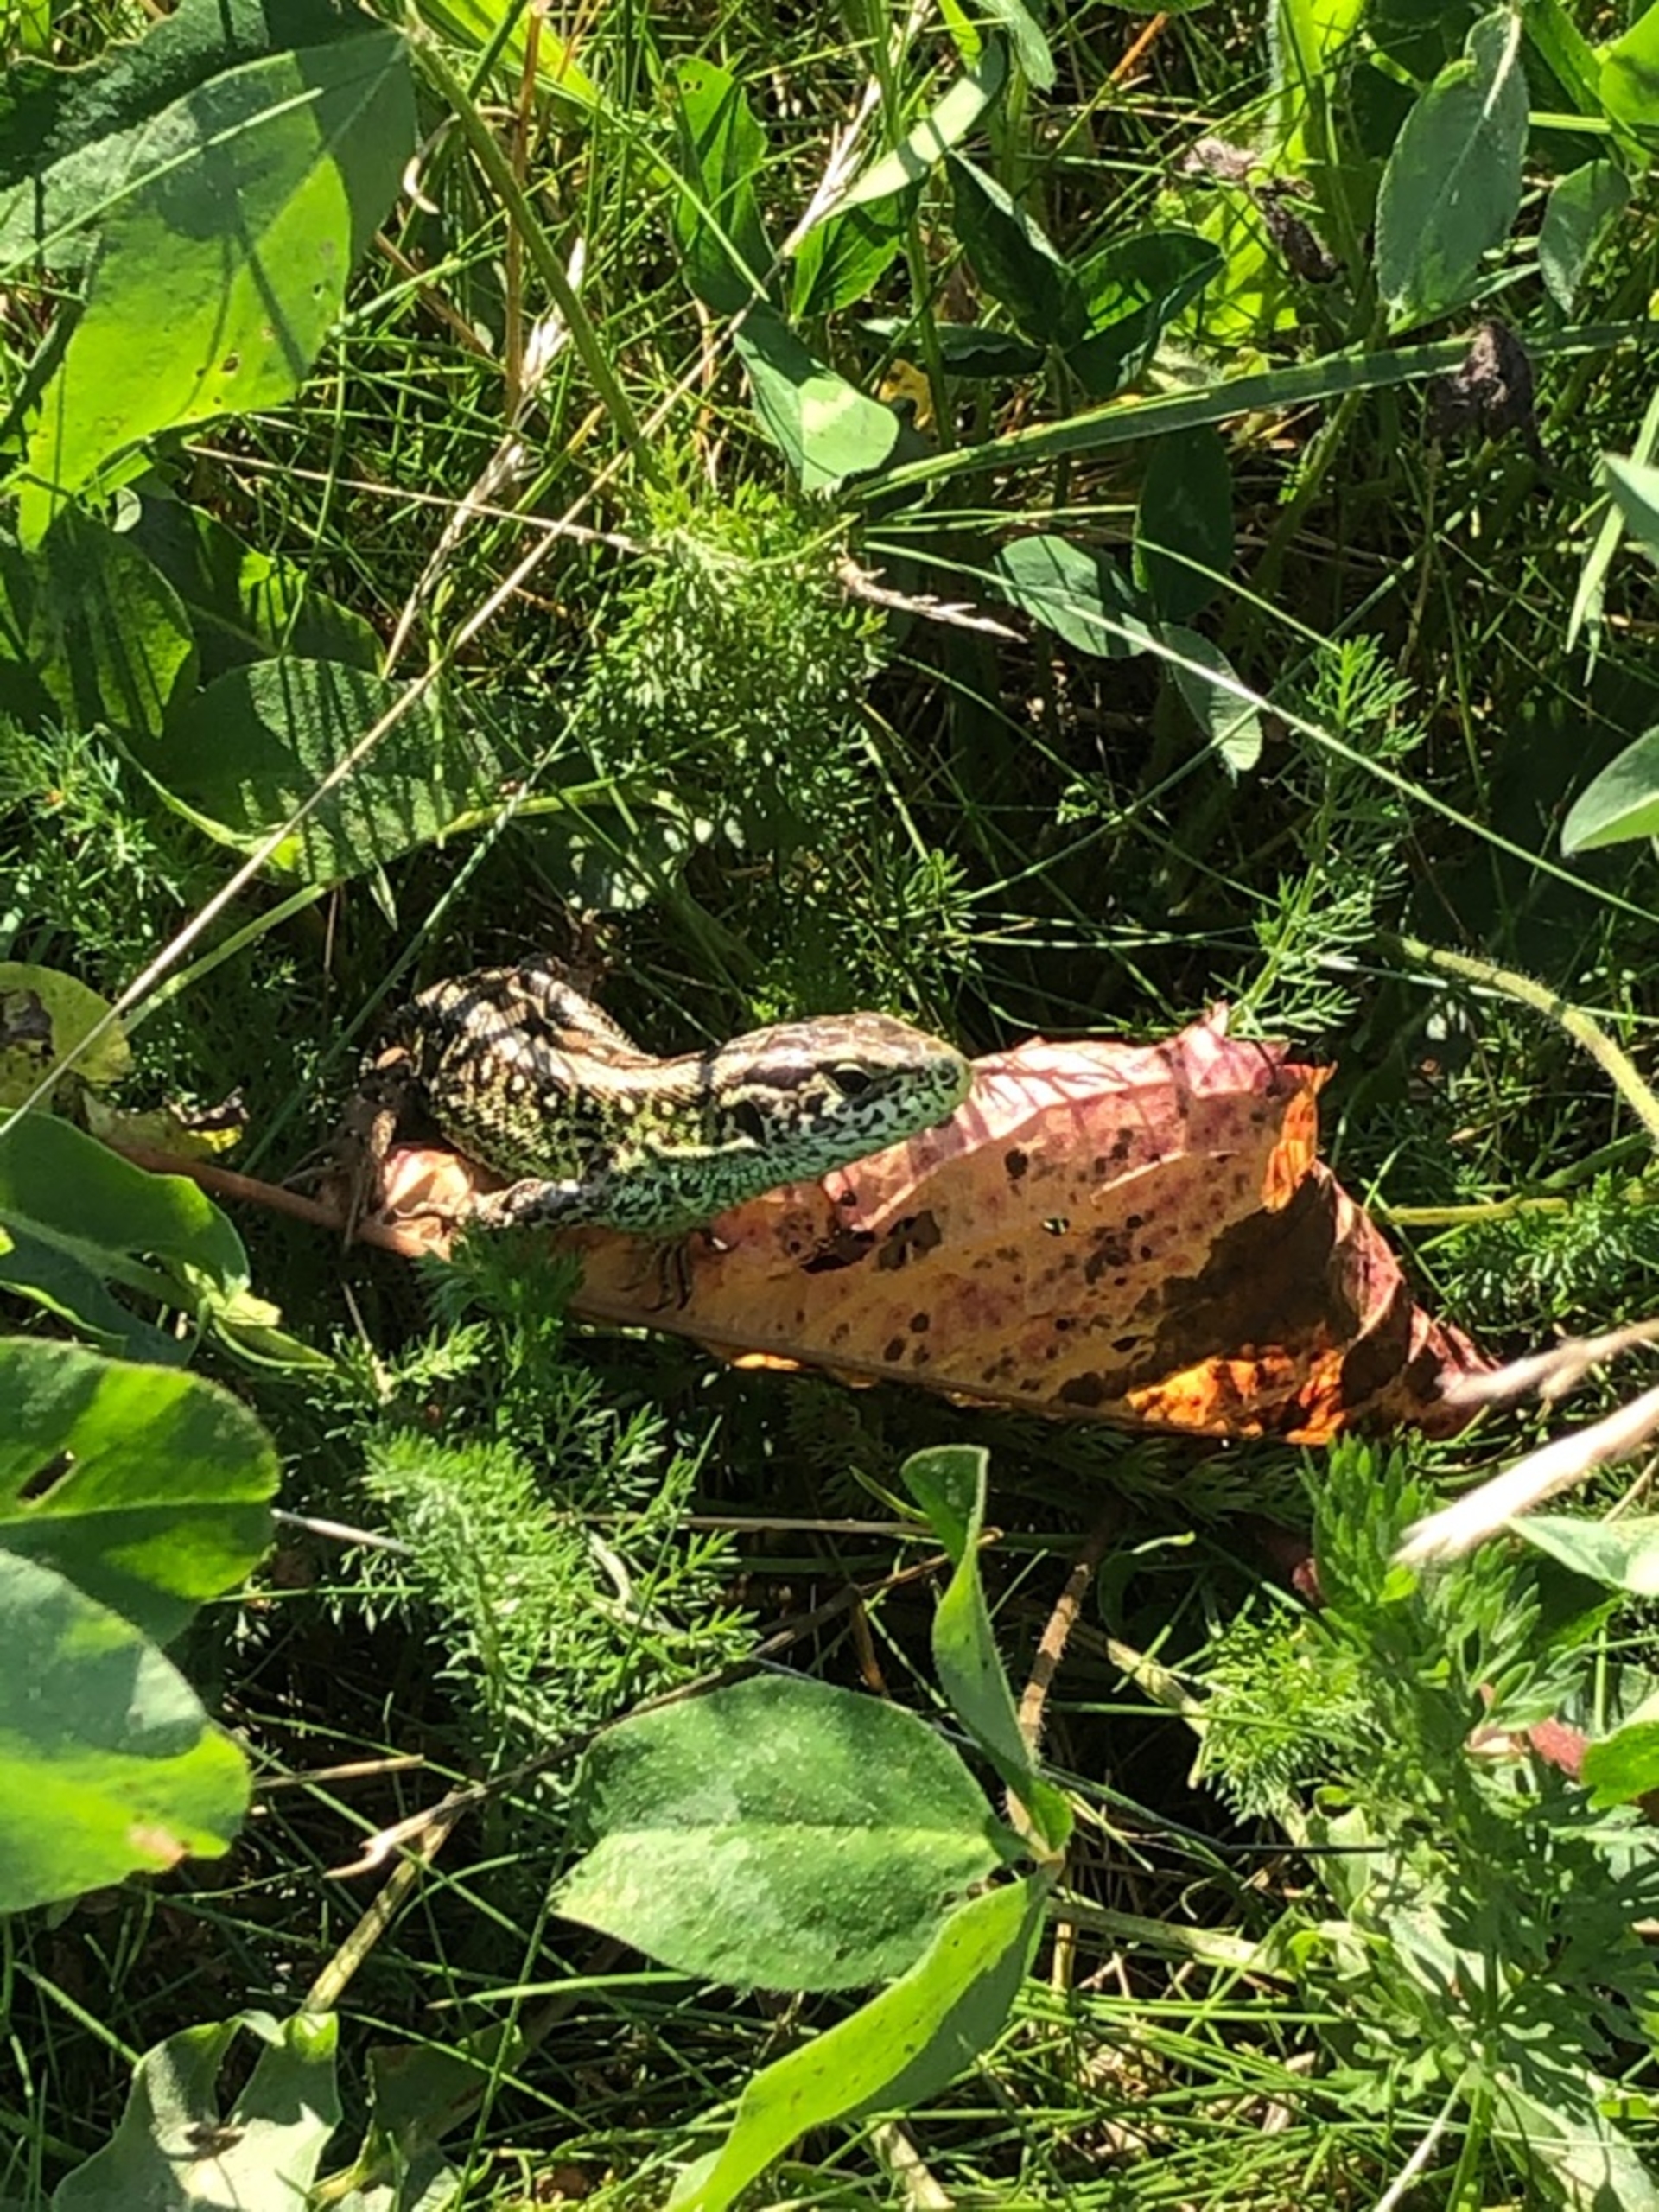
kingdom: Animalia
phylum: Chordata
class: Squamata
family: Lacertidae
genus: Lacerta
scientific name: Lacerta agilis
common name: Markfirben
